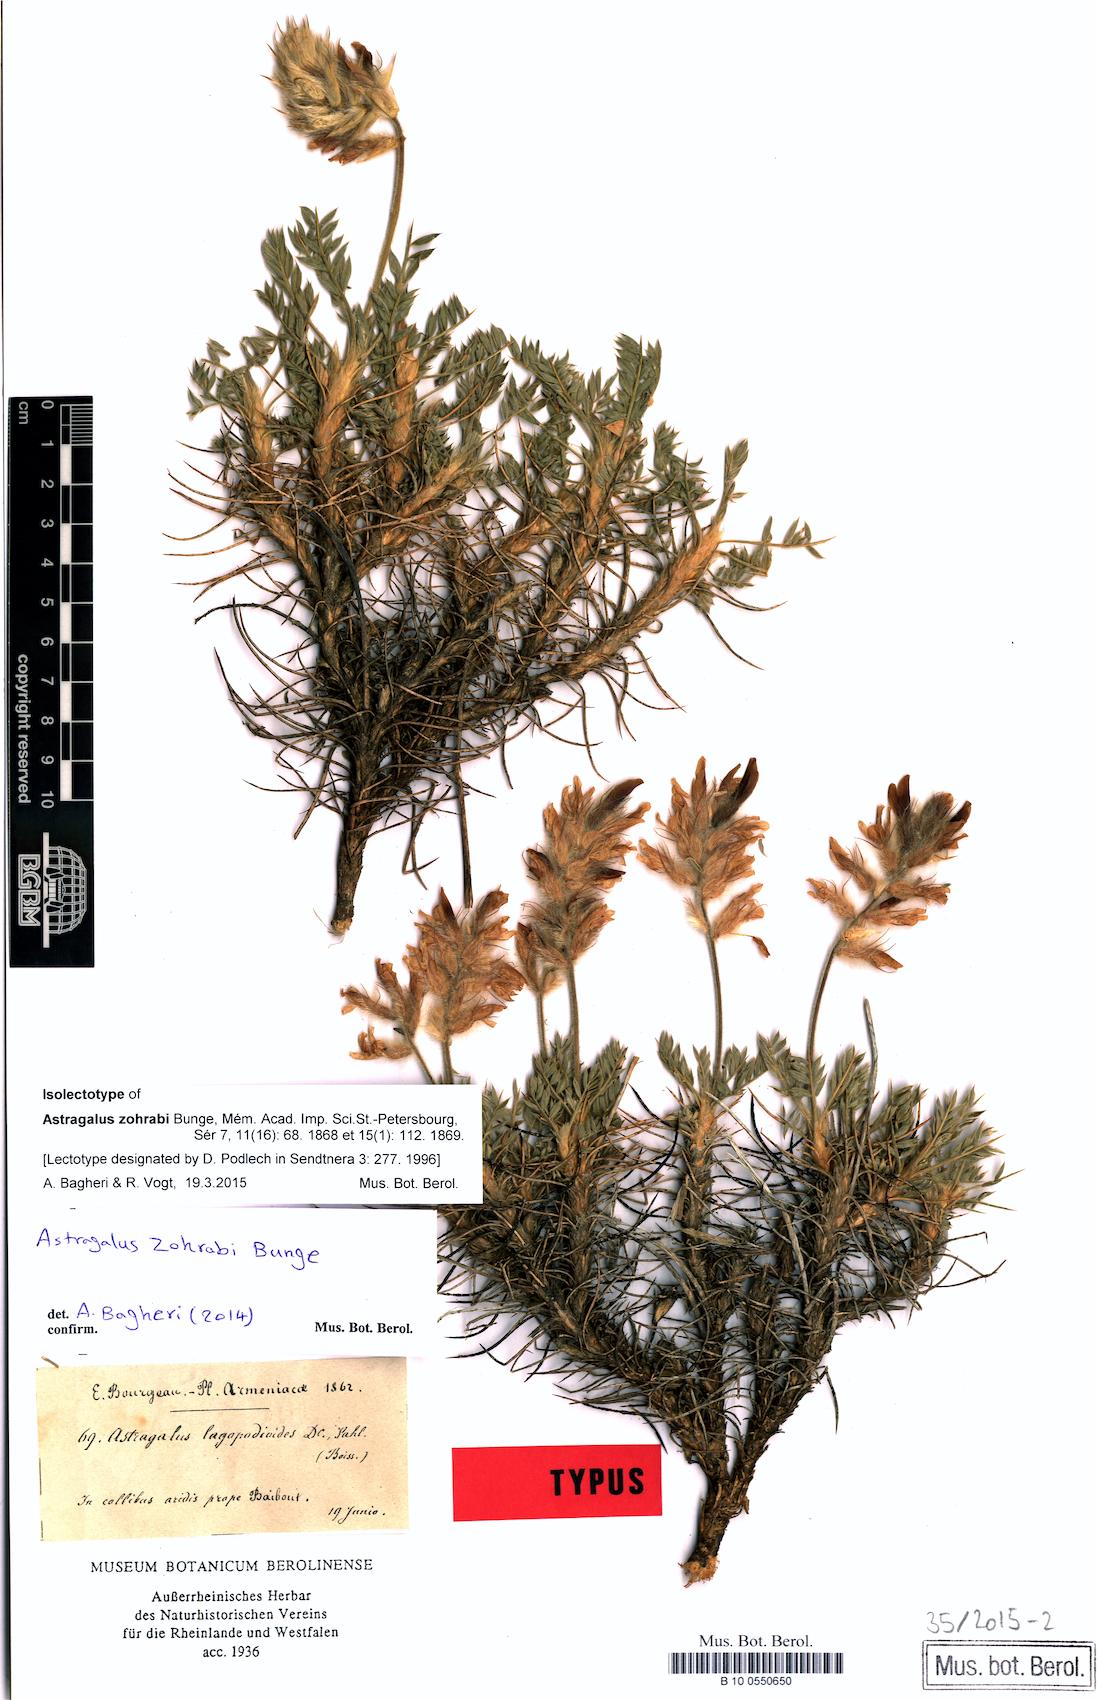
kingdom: Plantae
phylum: Tracheophyta
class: Magnoliopsida
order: Fabales
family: Fabaceae
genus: Astragalus
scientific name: Astragalus lagopodioides
